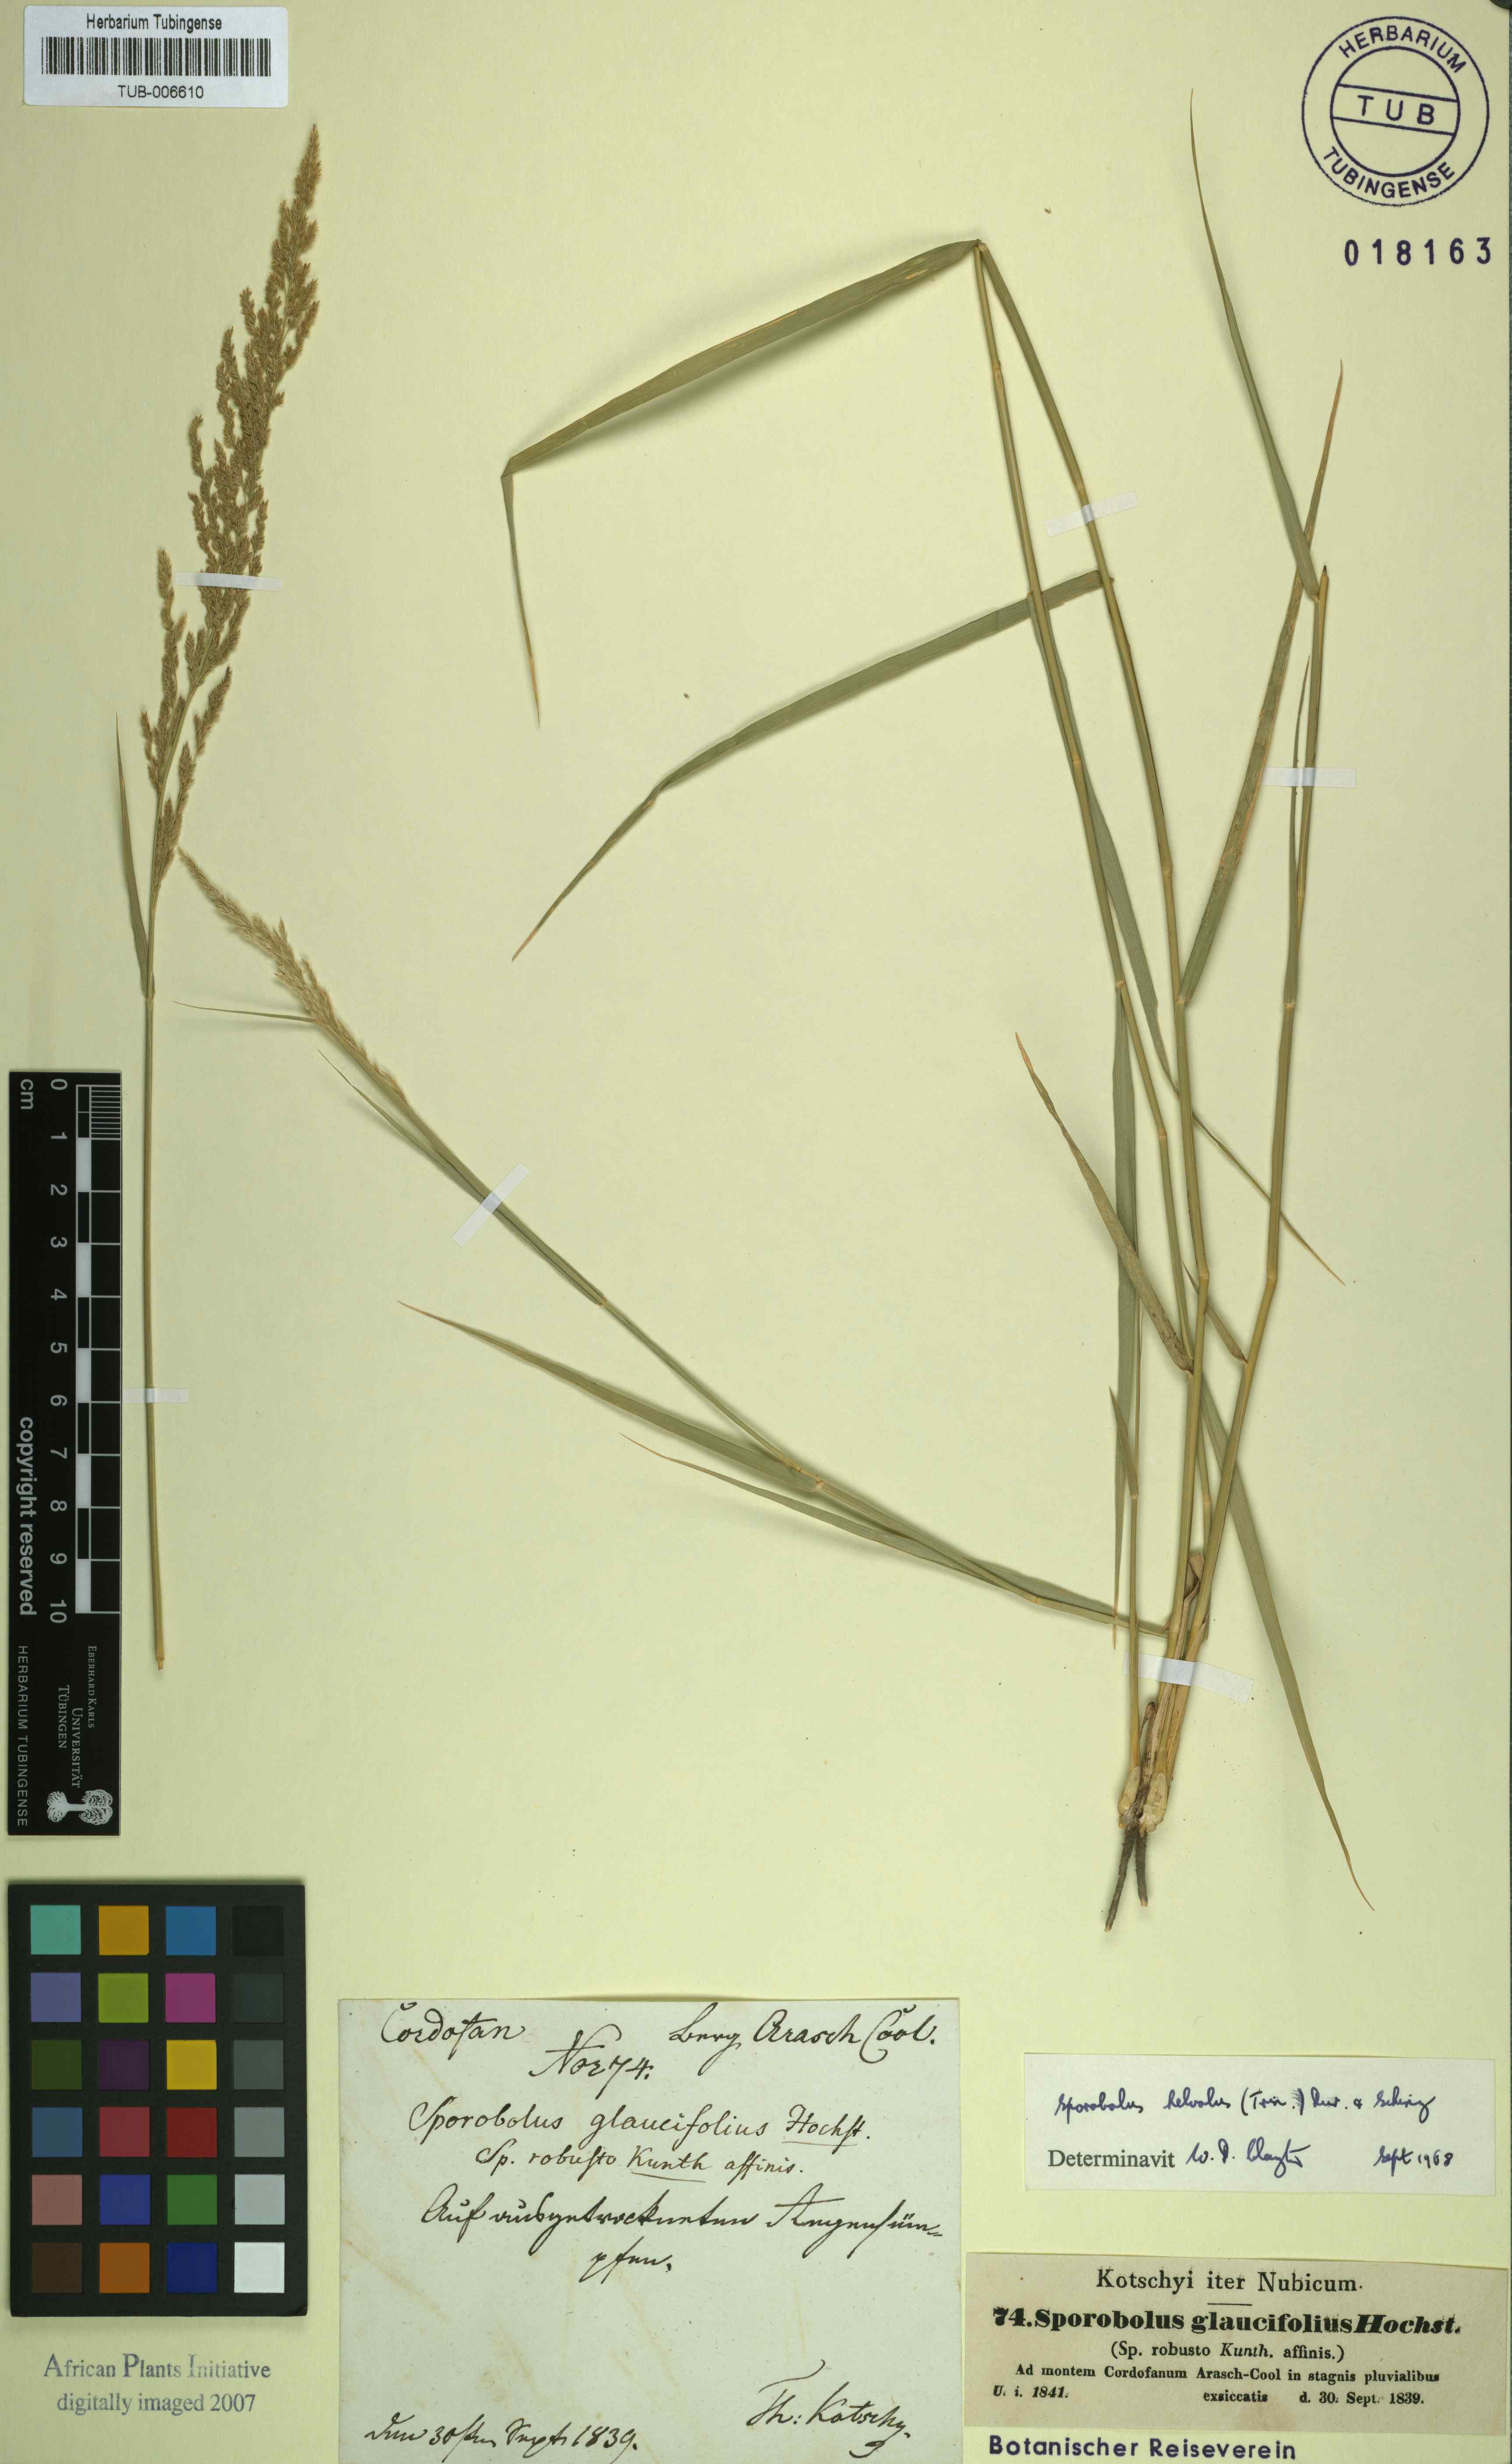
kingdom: Plantae
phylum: Tracheophyta
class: Liliopsida
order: Poales
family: Poaceae
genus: Sporobolus
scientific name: Sporobolus helvolus
